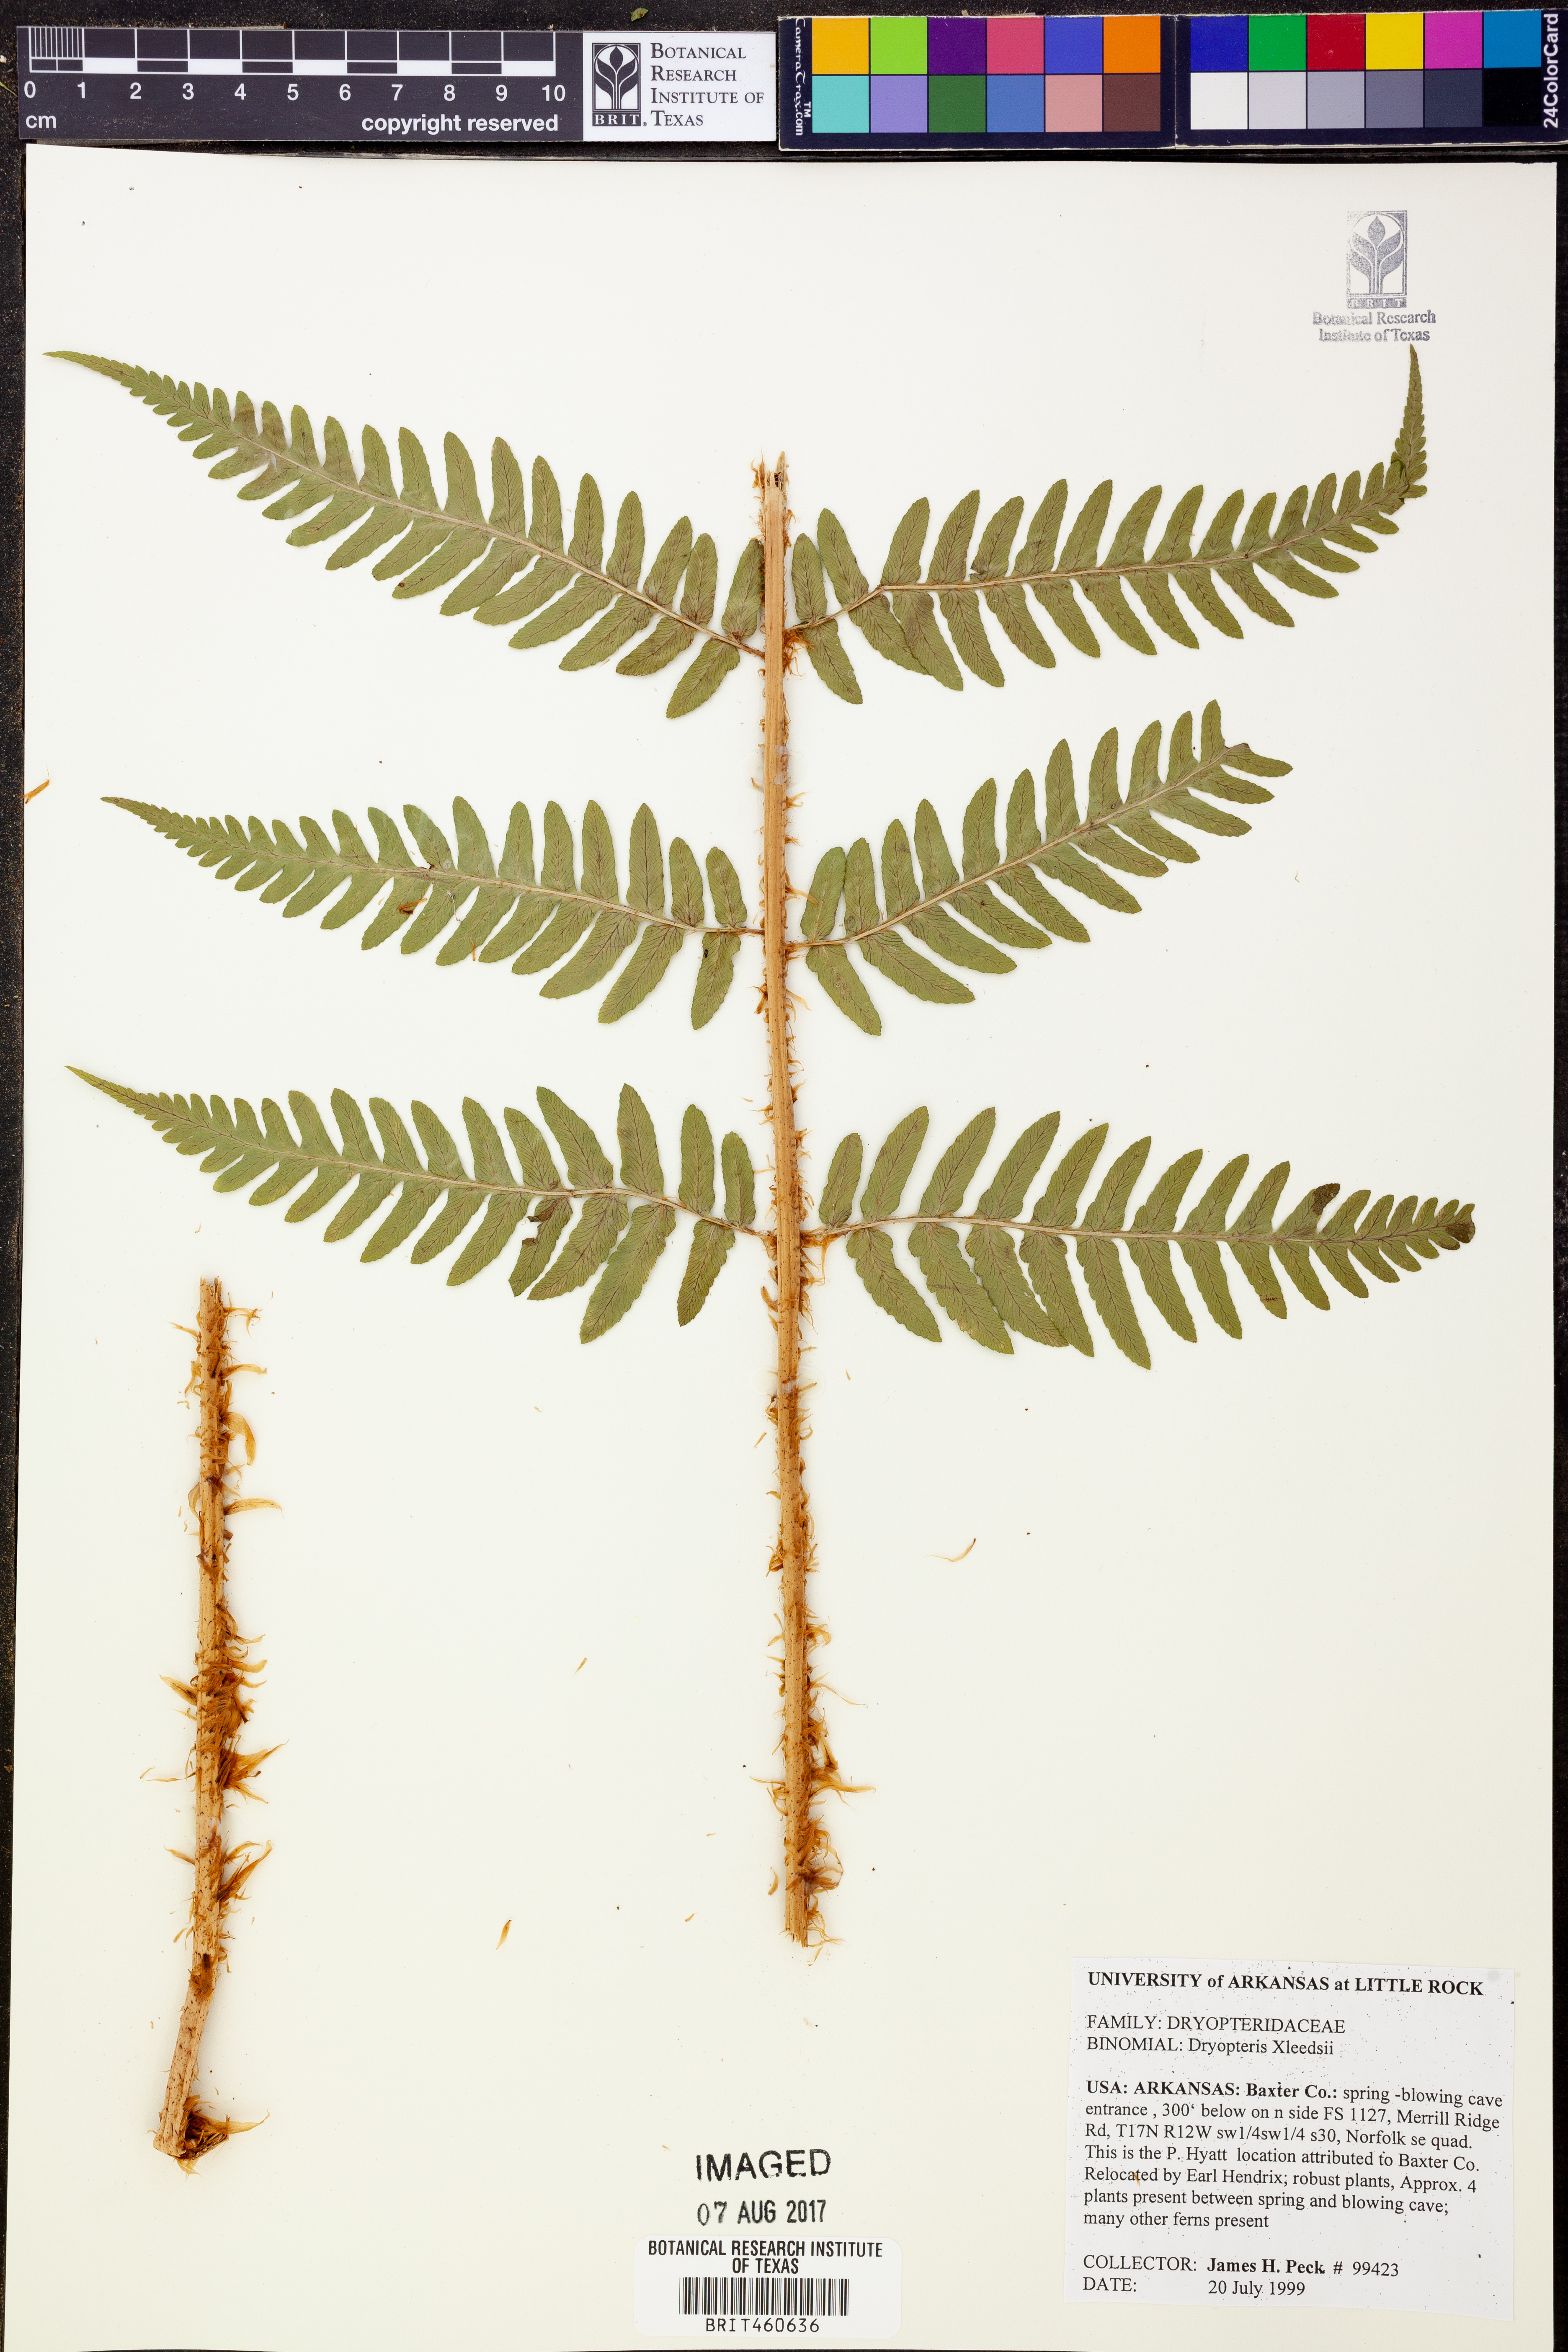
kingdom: Plantae
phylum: Tracheophyta
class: Polypodiopsida
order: Polypodiales
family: Dryopteridaceae
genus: Dryopteris
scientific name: Dryopteris
